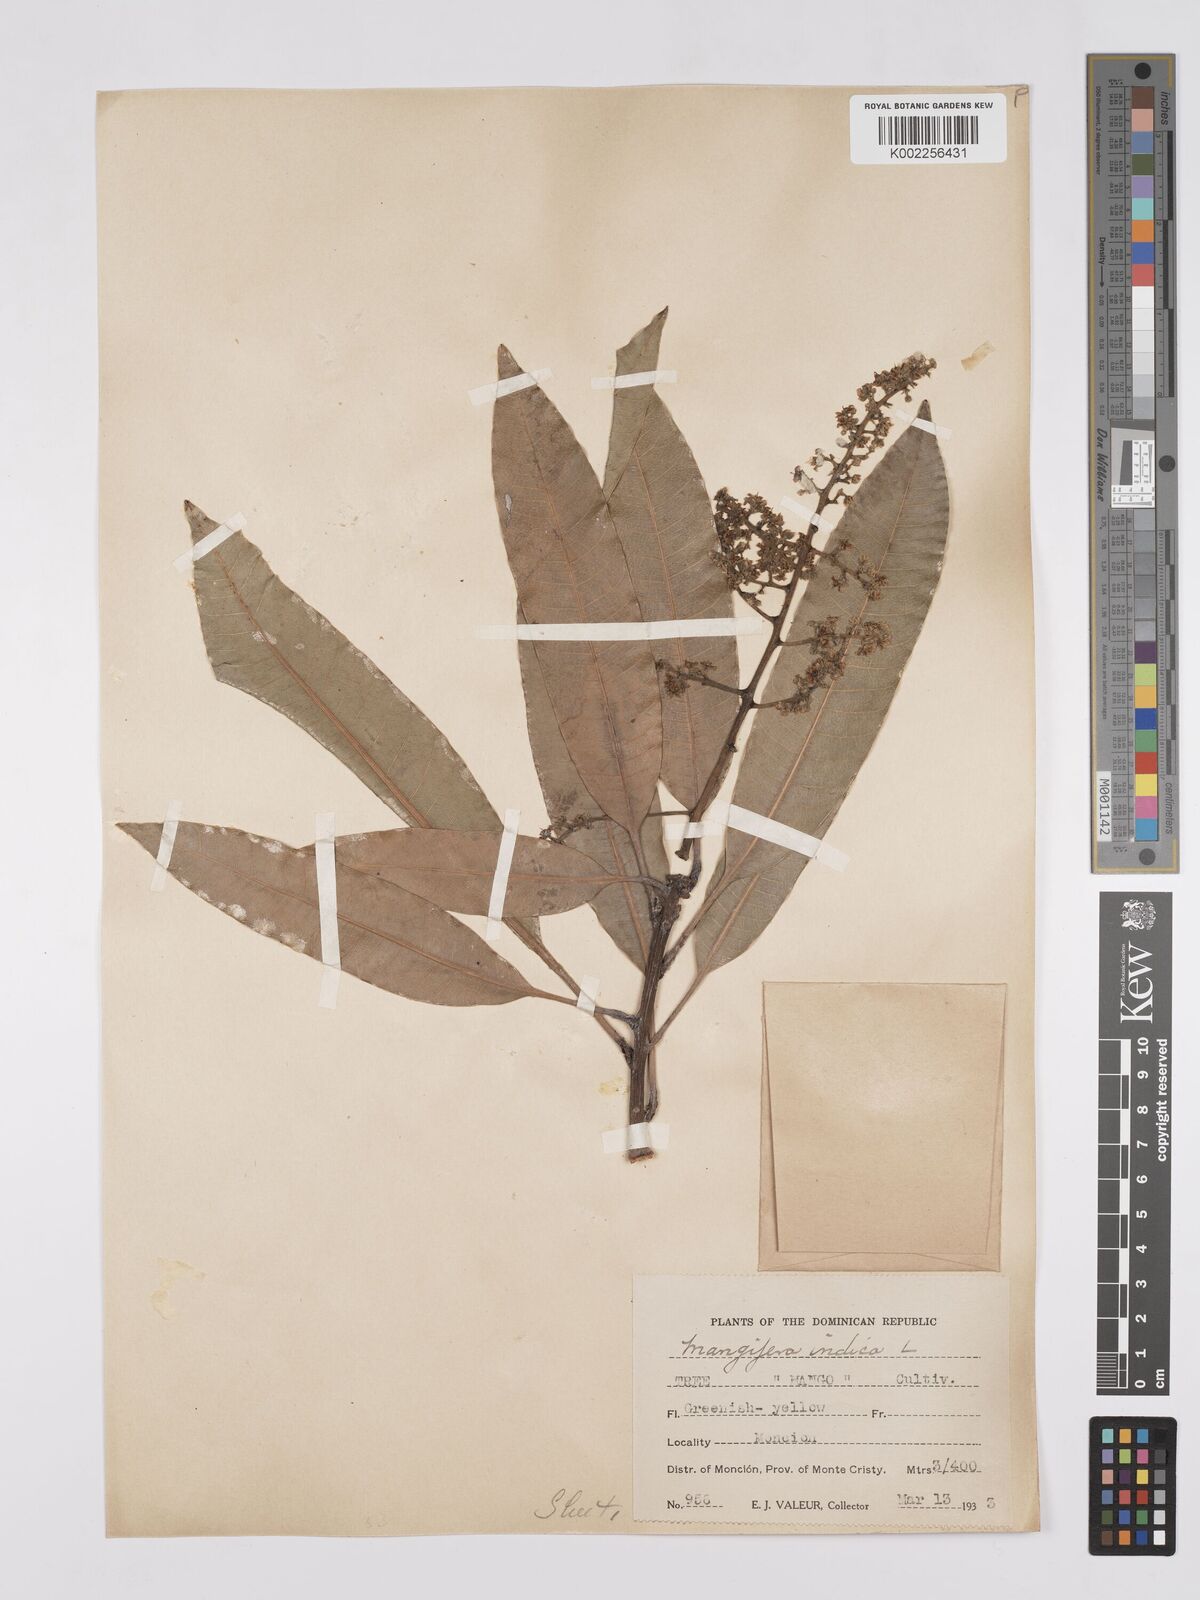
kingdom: Plantae
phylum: Tracheophyta
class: Magnoliopsida
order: Sapindales
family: Anacardiaceae
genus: Mangifera
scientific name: Mangifera indica
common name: Mango
